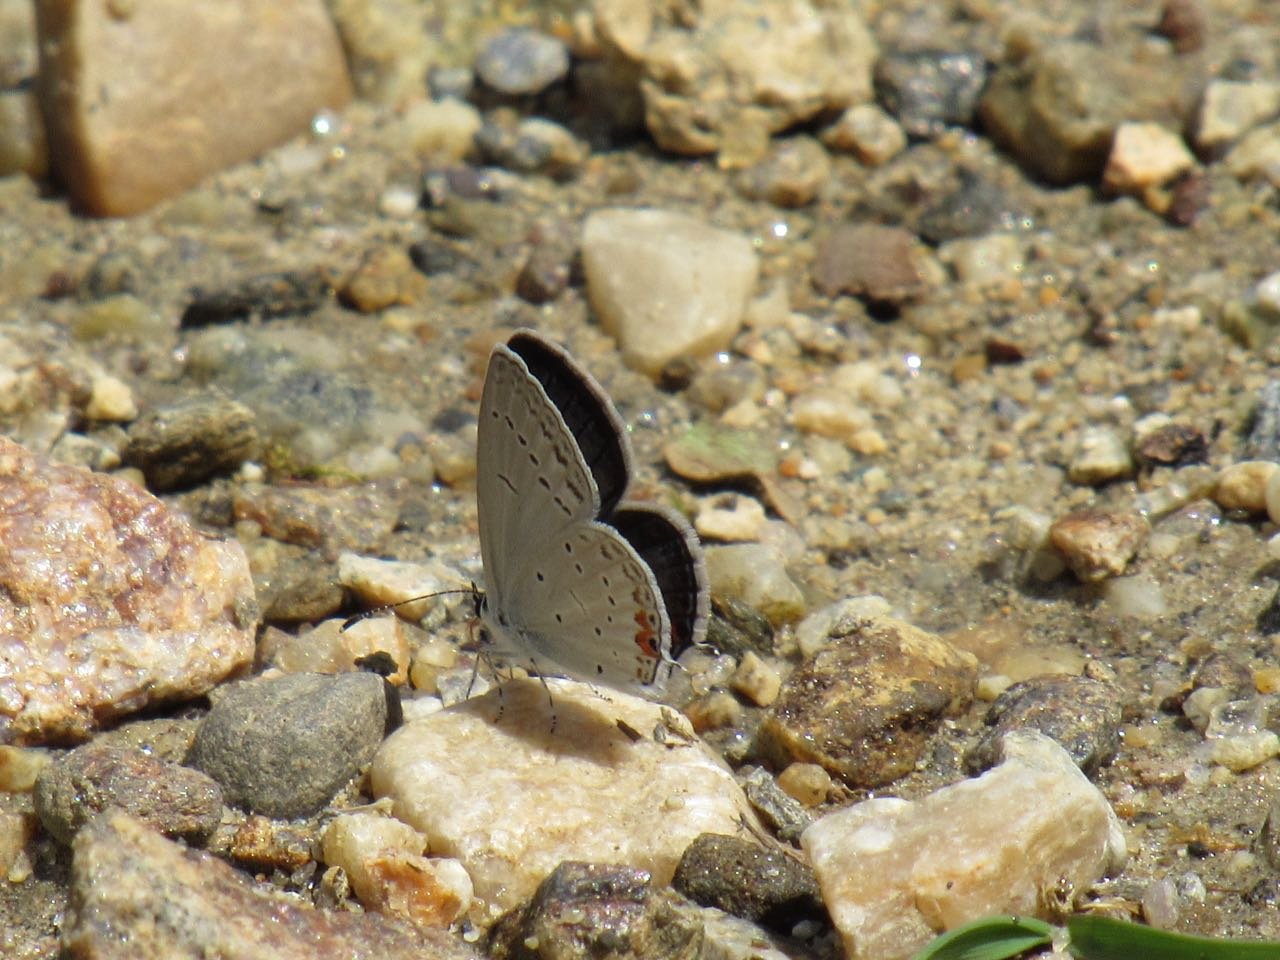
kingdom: Animalia
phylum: Arthropoda
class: Insecta
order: Lepidoptera
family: Lycaenidae
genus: Elkalyce
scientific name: Elkalyce comyntas
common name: Eastern Tailed-Blue
